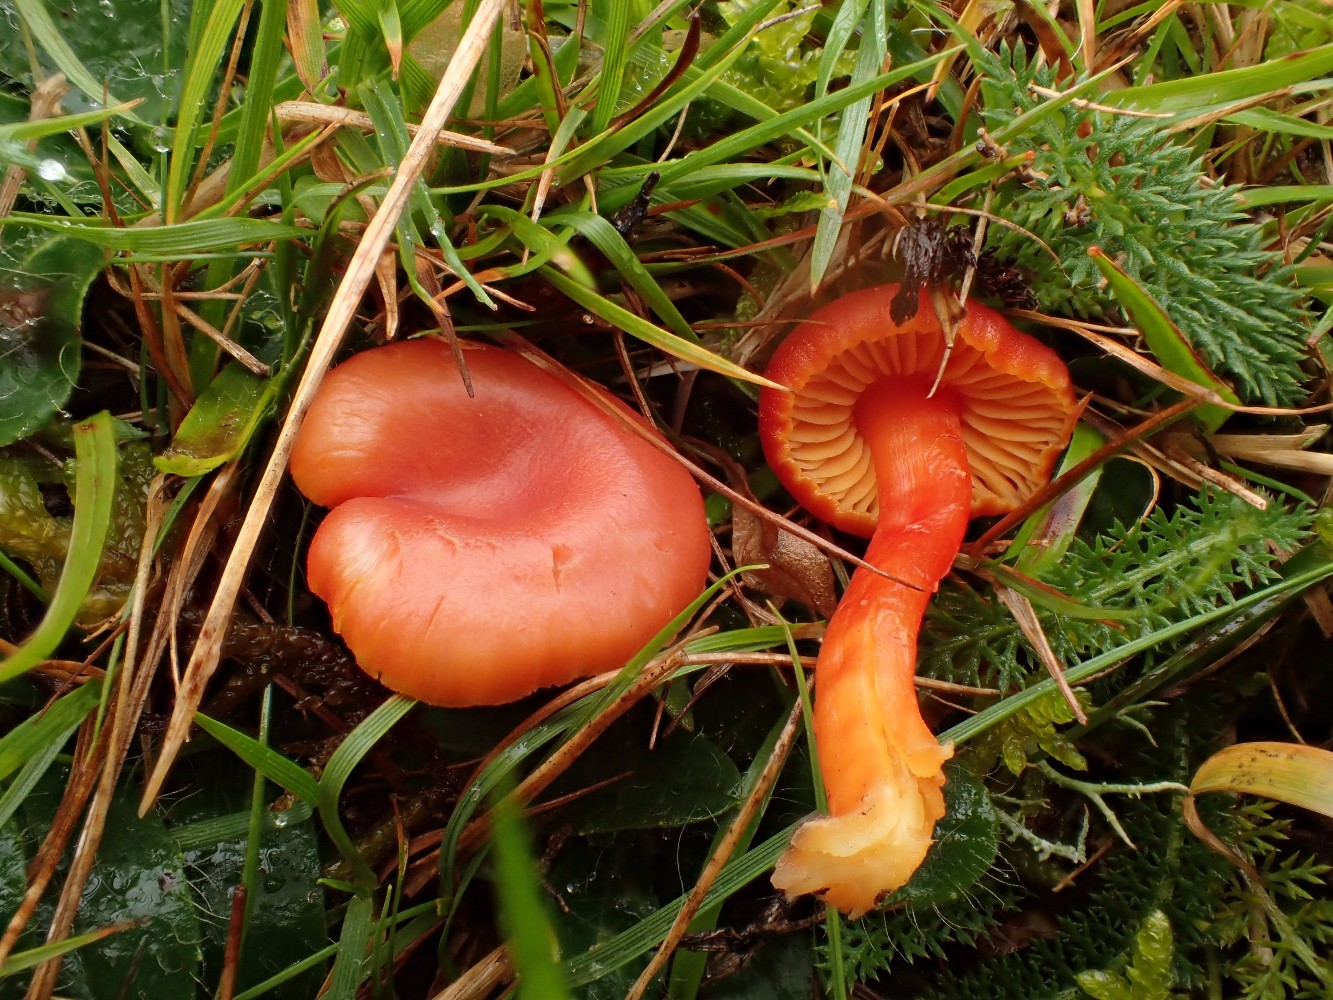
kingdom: Fungi
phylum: Basidiomycota
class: Agaricomycetes
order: Agaricales
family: Hygrophoraceae
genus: Hygrocybe
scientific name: Hygrocybe miniata
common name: mønje-vokshat
